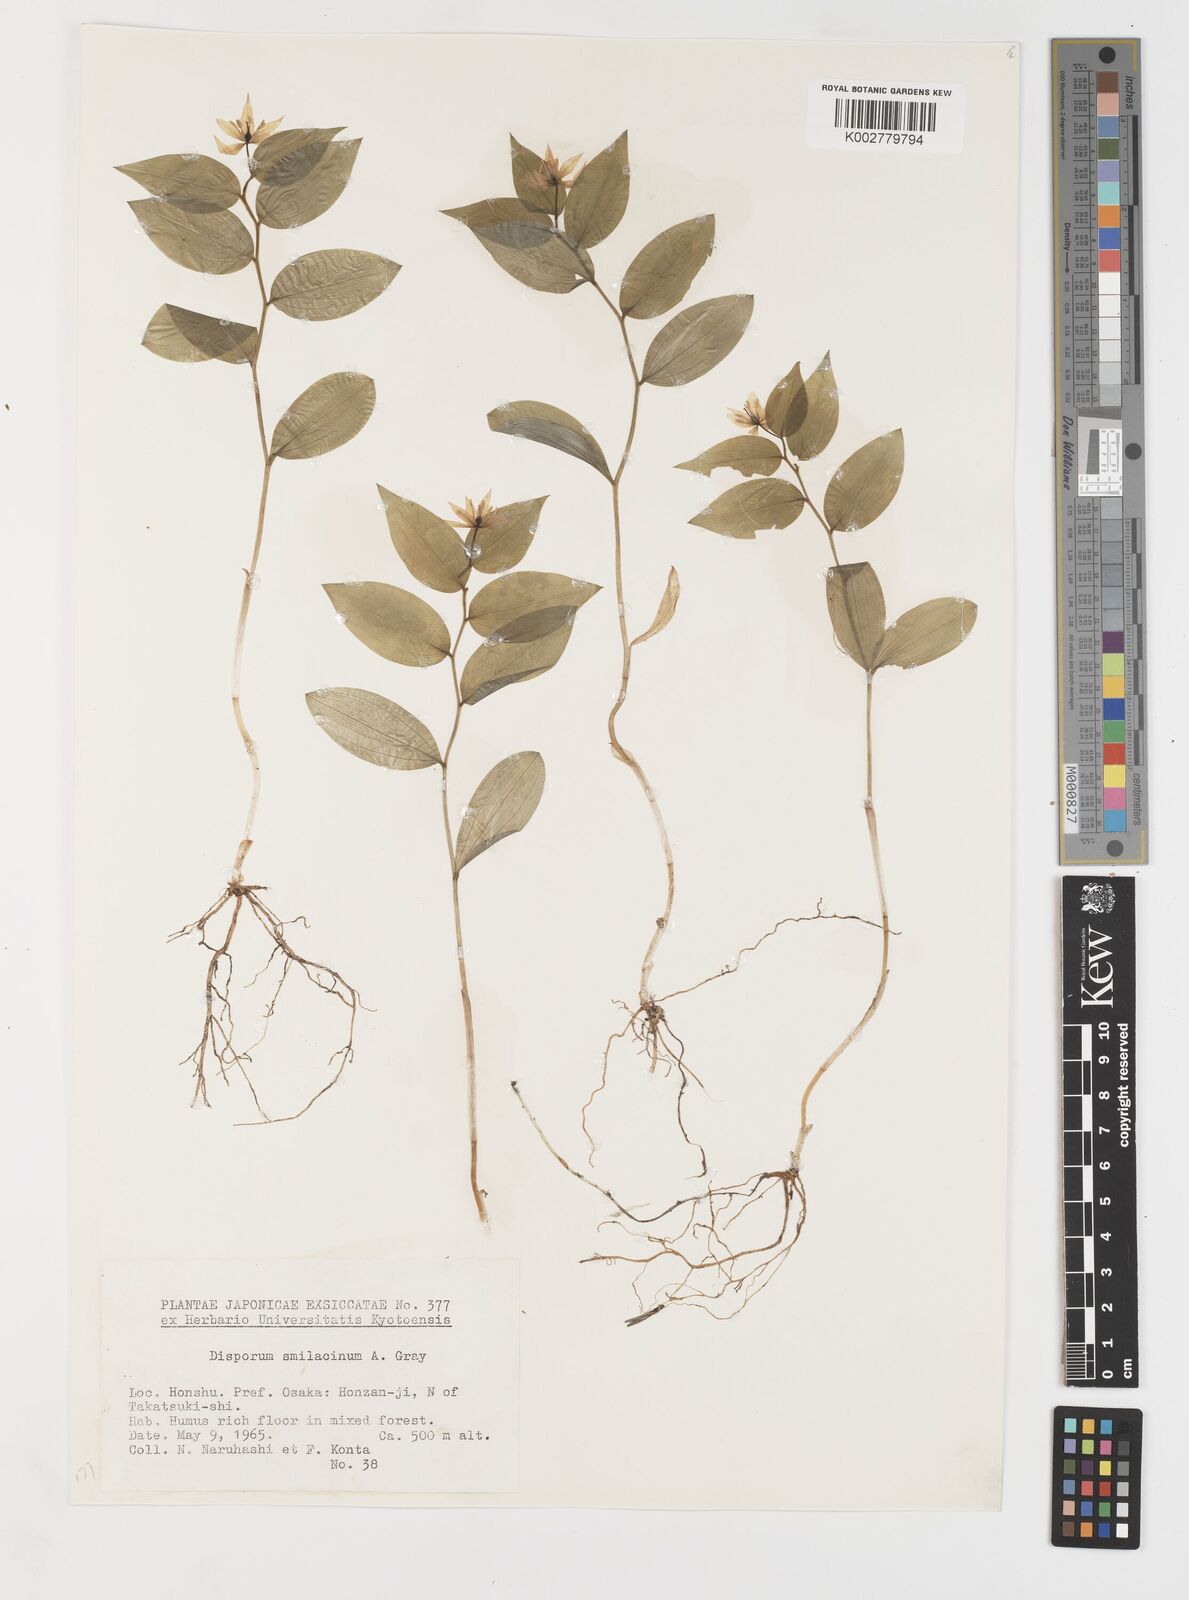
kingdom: Plantae
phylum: Tracheophyta
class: Liliopsida
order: Liliales
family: Colchicaceae
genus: Disporum
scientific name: Disporum smilacinum
